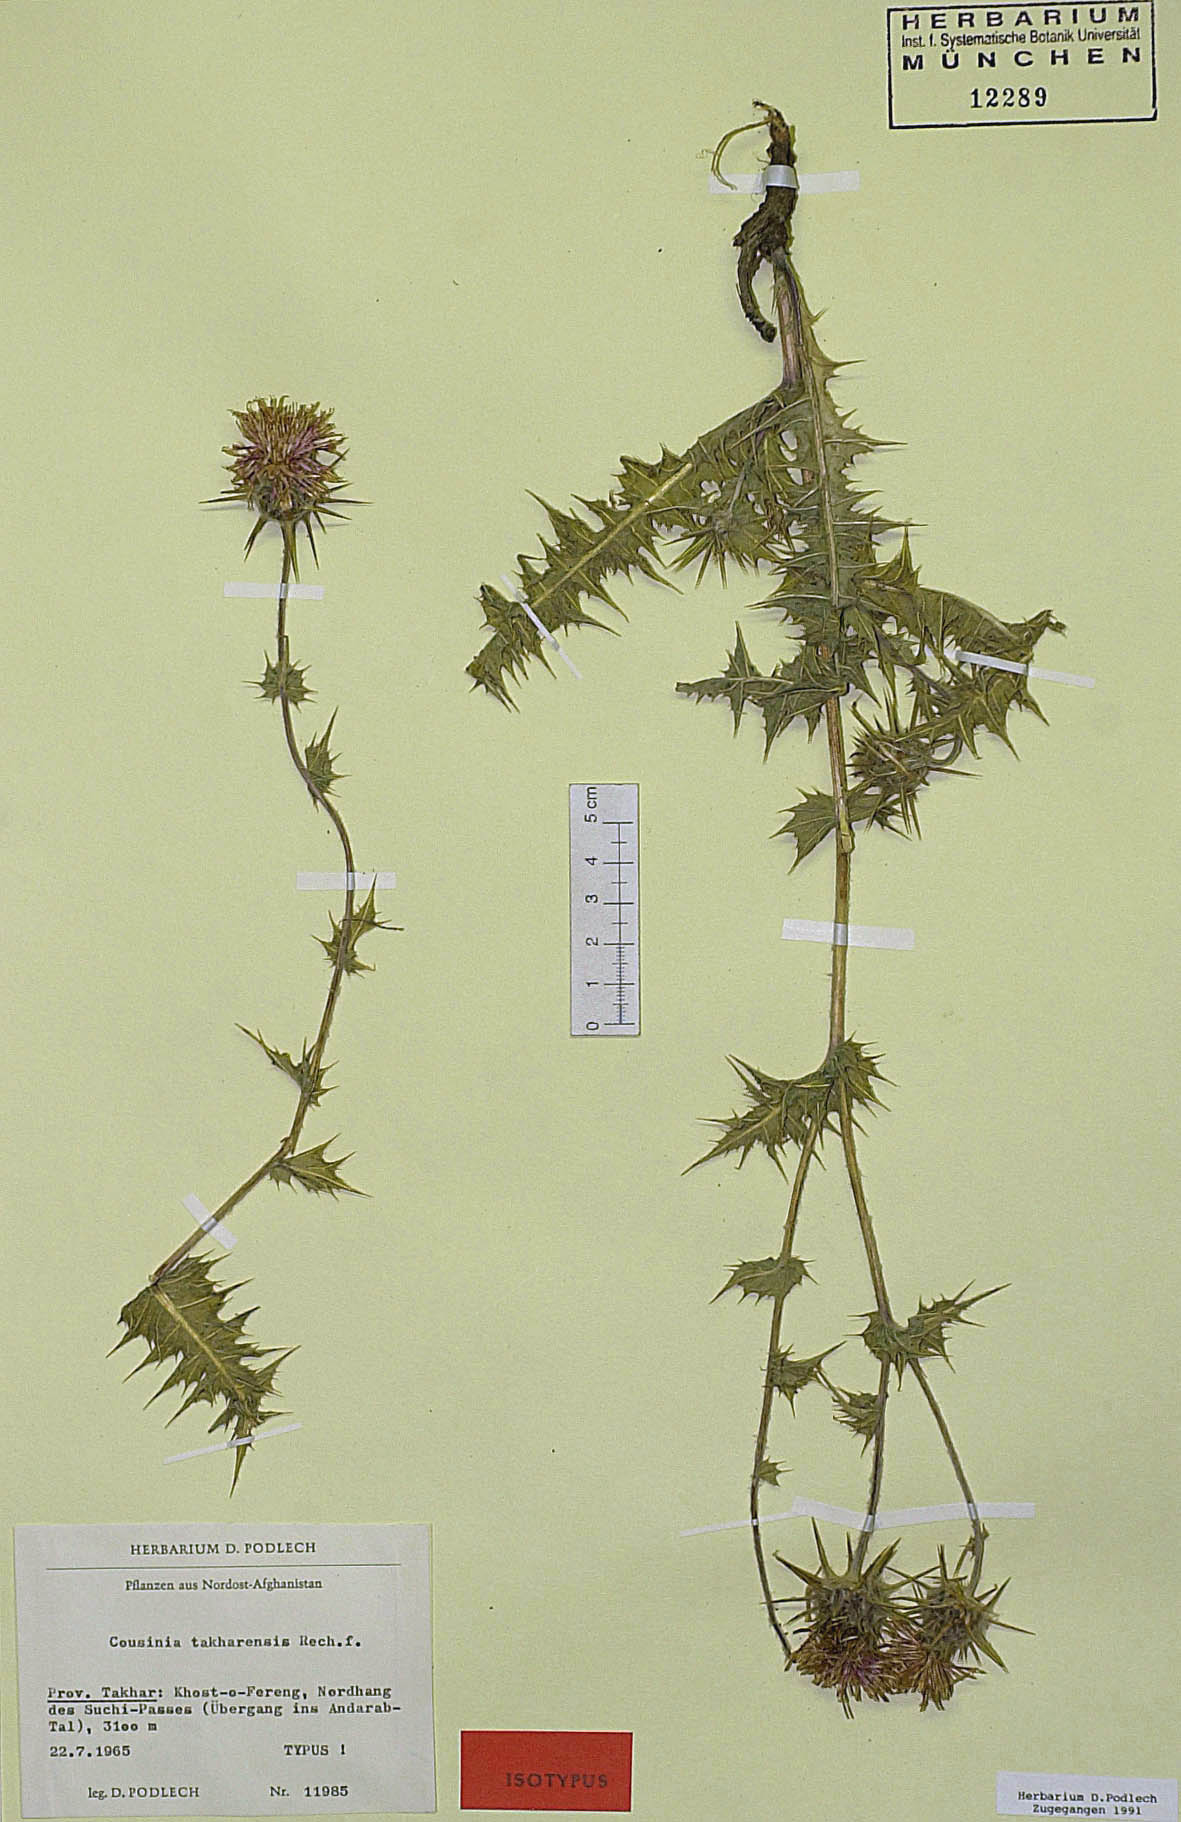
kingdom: Plantae
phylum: Tracheophyta
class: Magnoliopsida
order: Asterales
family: Asteraceae
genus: Cousinia
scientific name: Cousinia takharensis
